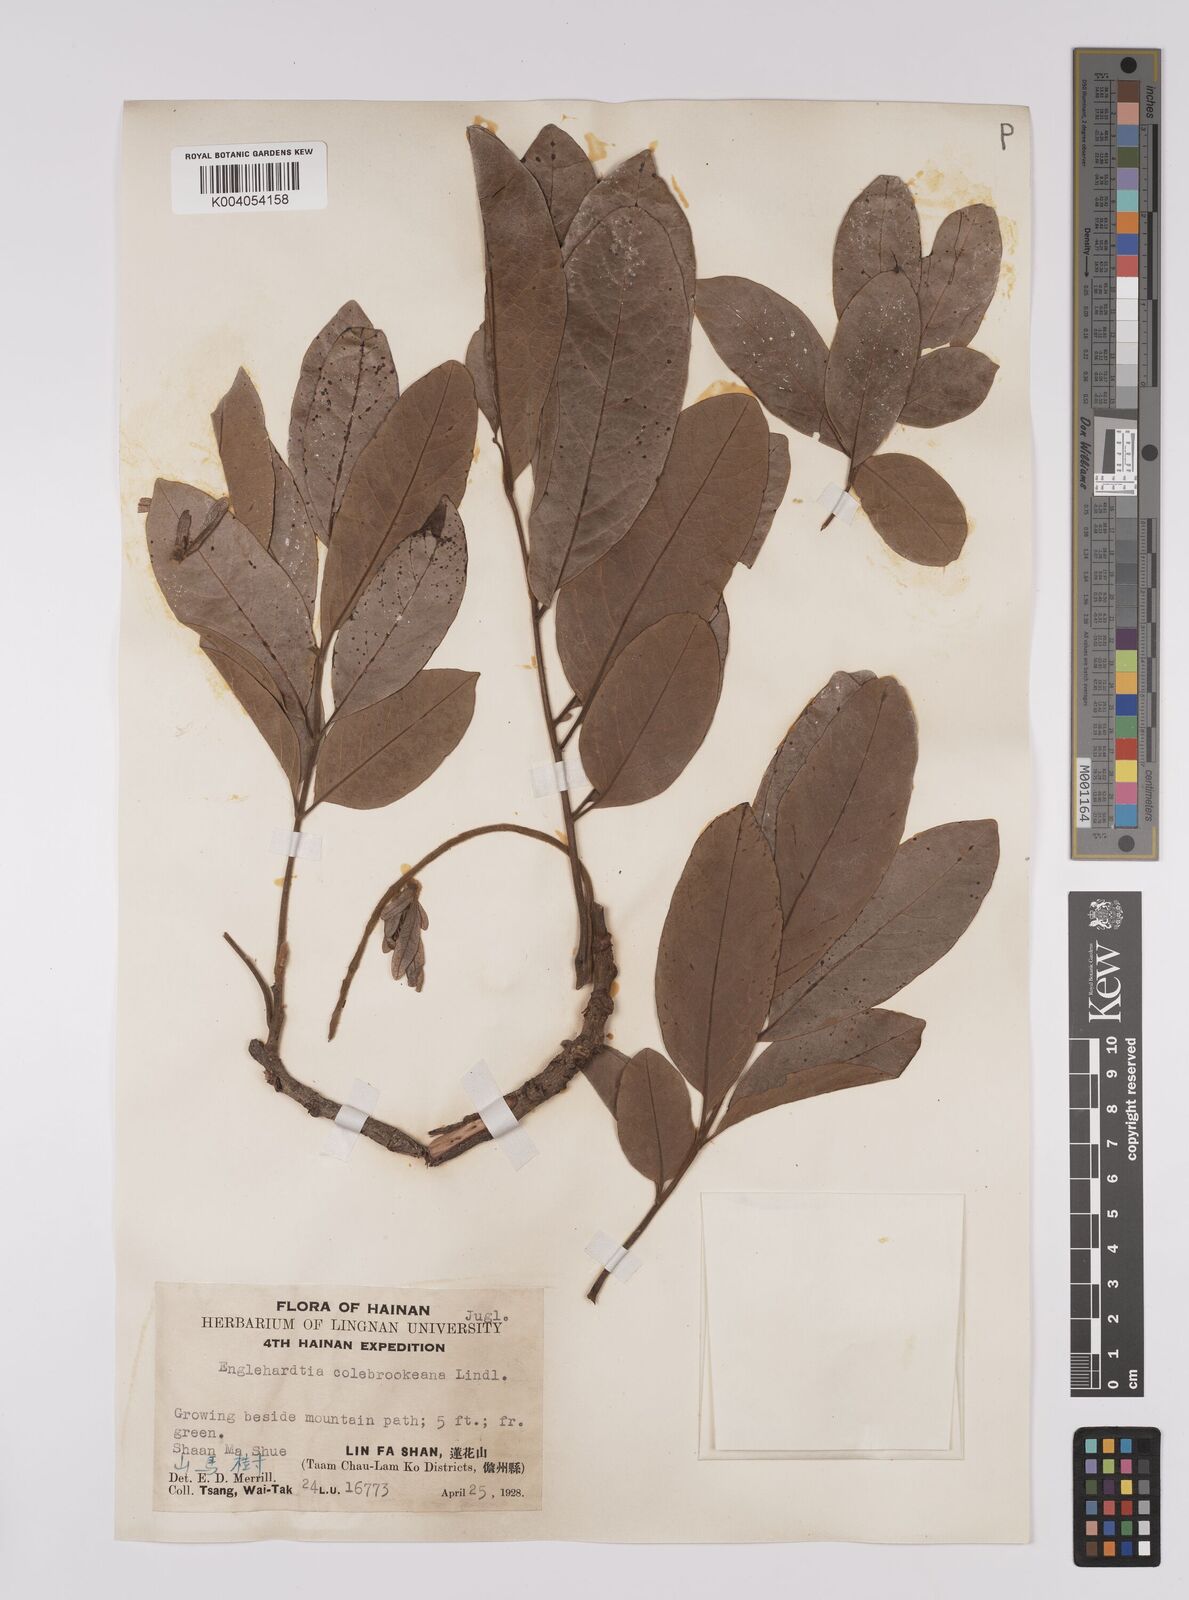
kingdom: Plantae
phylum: Tracheophyta
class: Magnoliopsida
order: Fagales
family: Juglandaceae
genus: Engelhardia
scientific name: Engelhardia spicata
